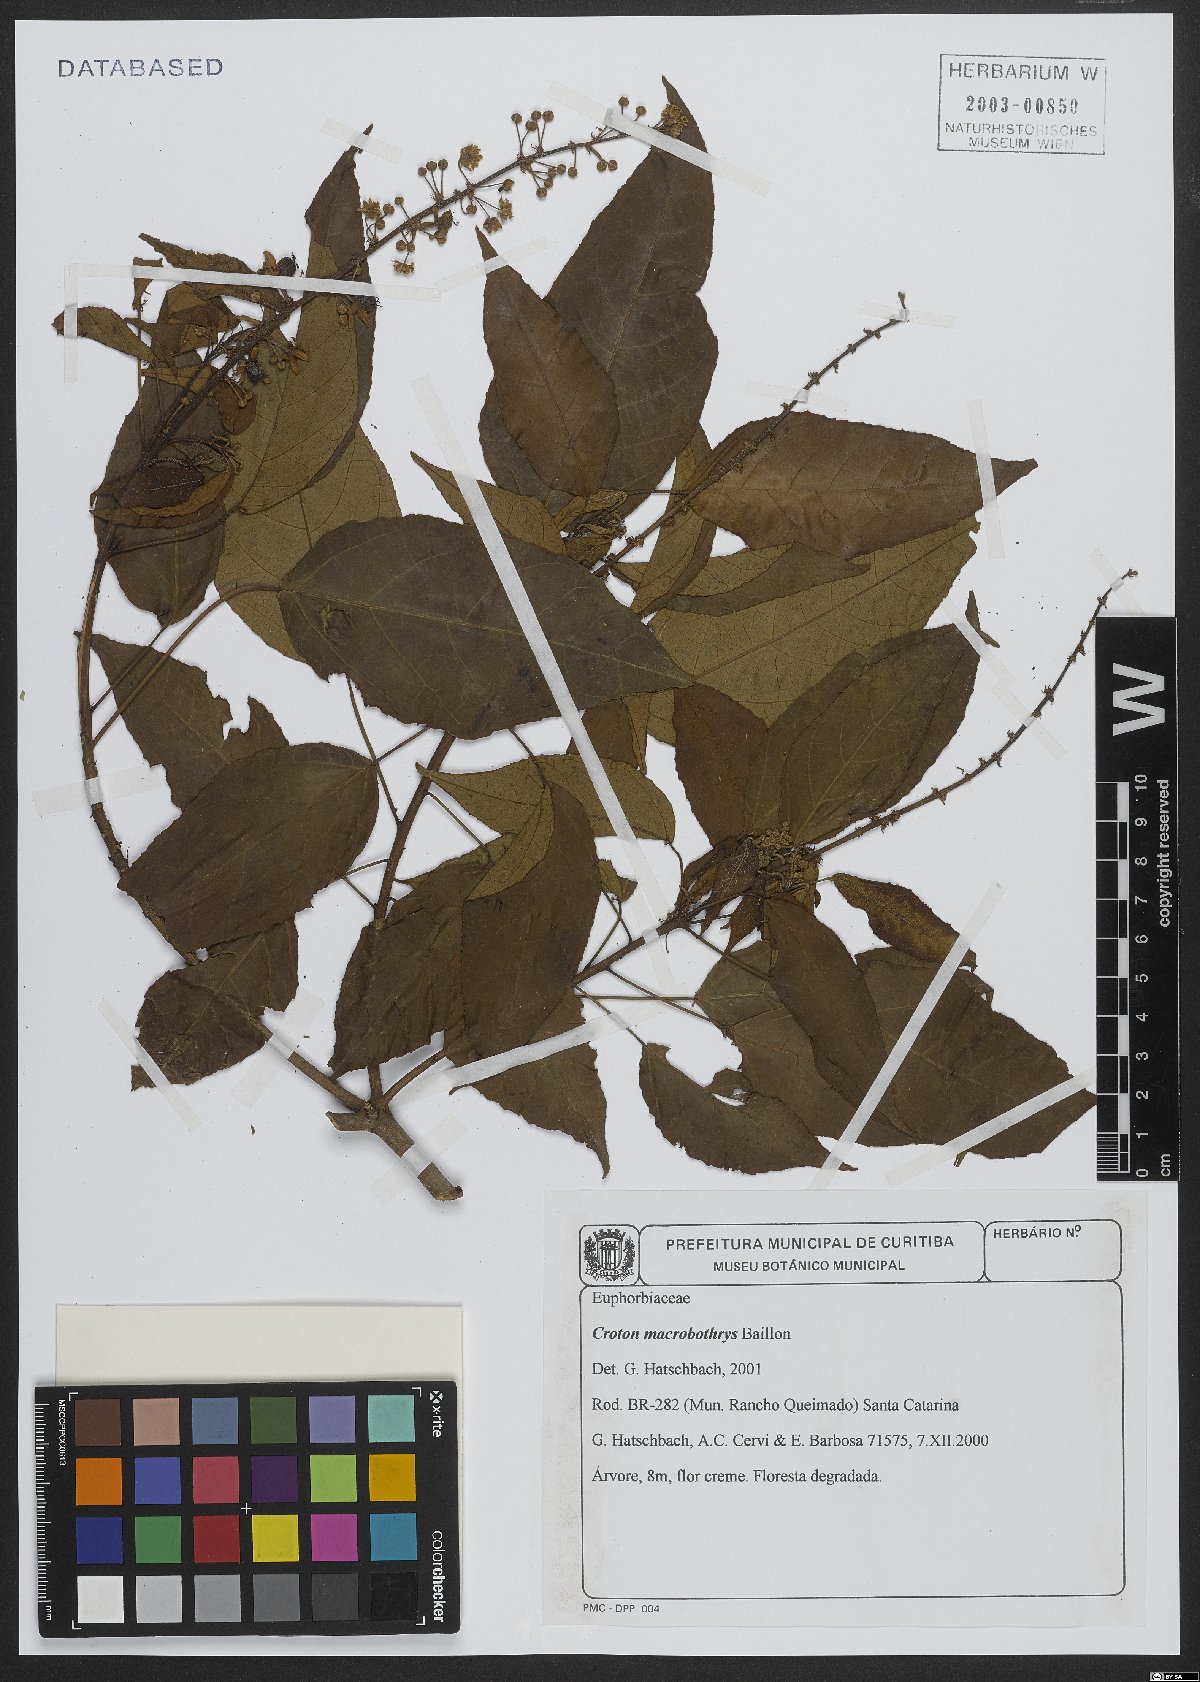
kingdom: Plantae
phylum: Tracheophyta
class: Magnoliopsida
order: Malpighiales
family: Euphorbiaceae
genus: Croton
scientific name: Croton macrobothrys
